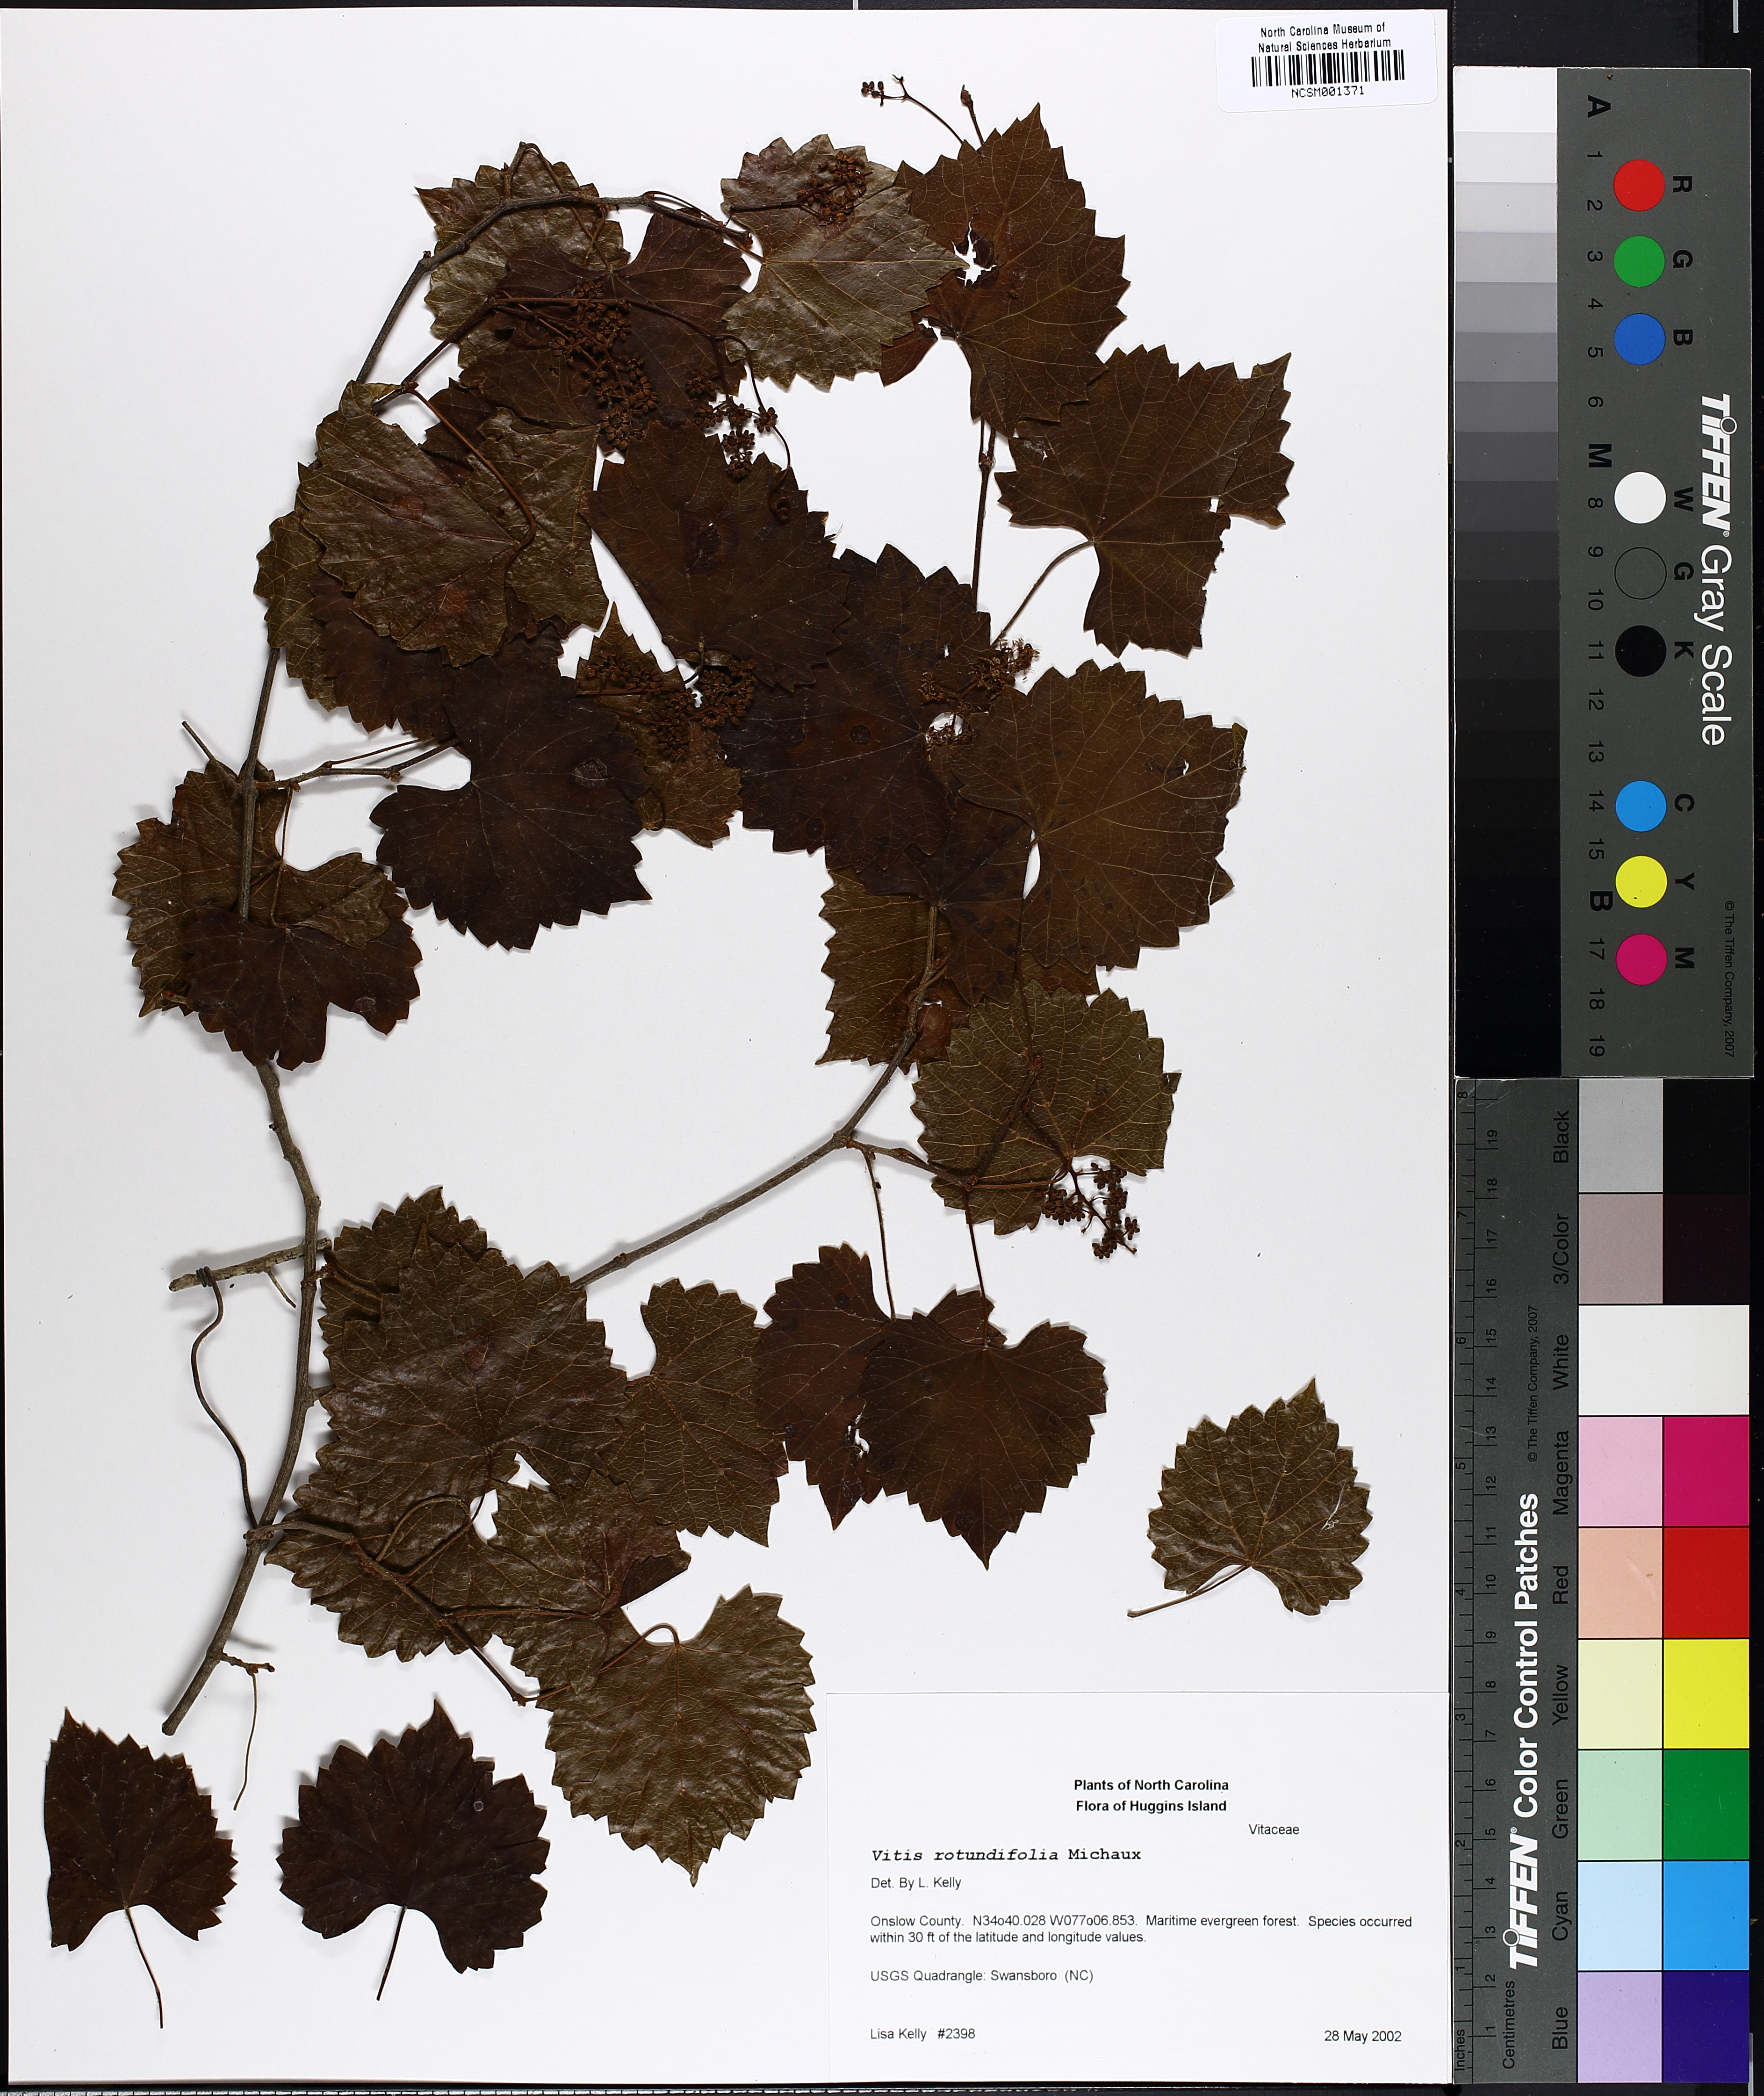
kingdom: Plantae
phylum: Tracheophyta
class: Magnoliopsida
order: Vitales
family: Vitaceae
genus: Vitis
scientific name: Vitis rotundifolia
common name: Muscadine grape
